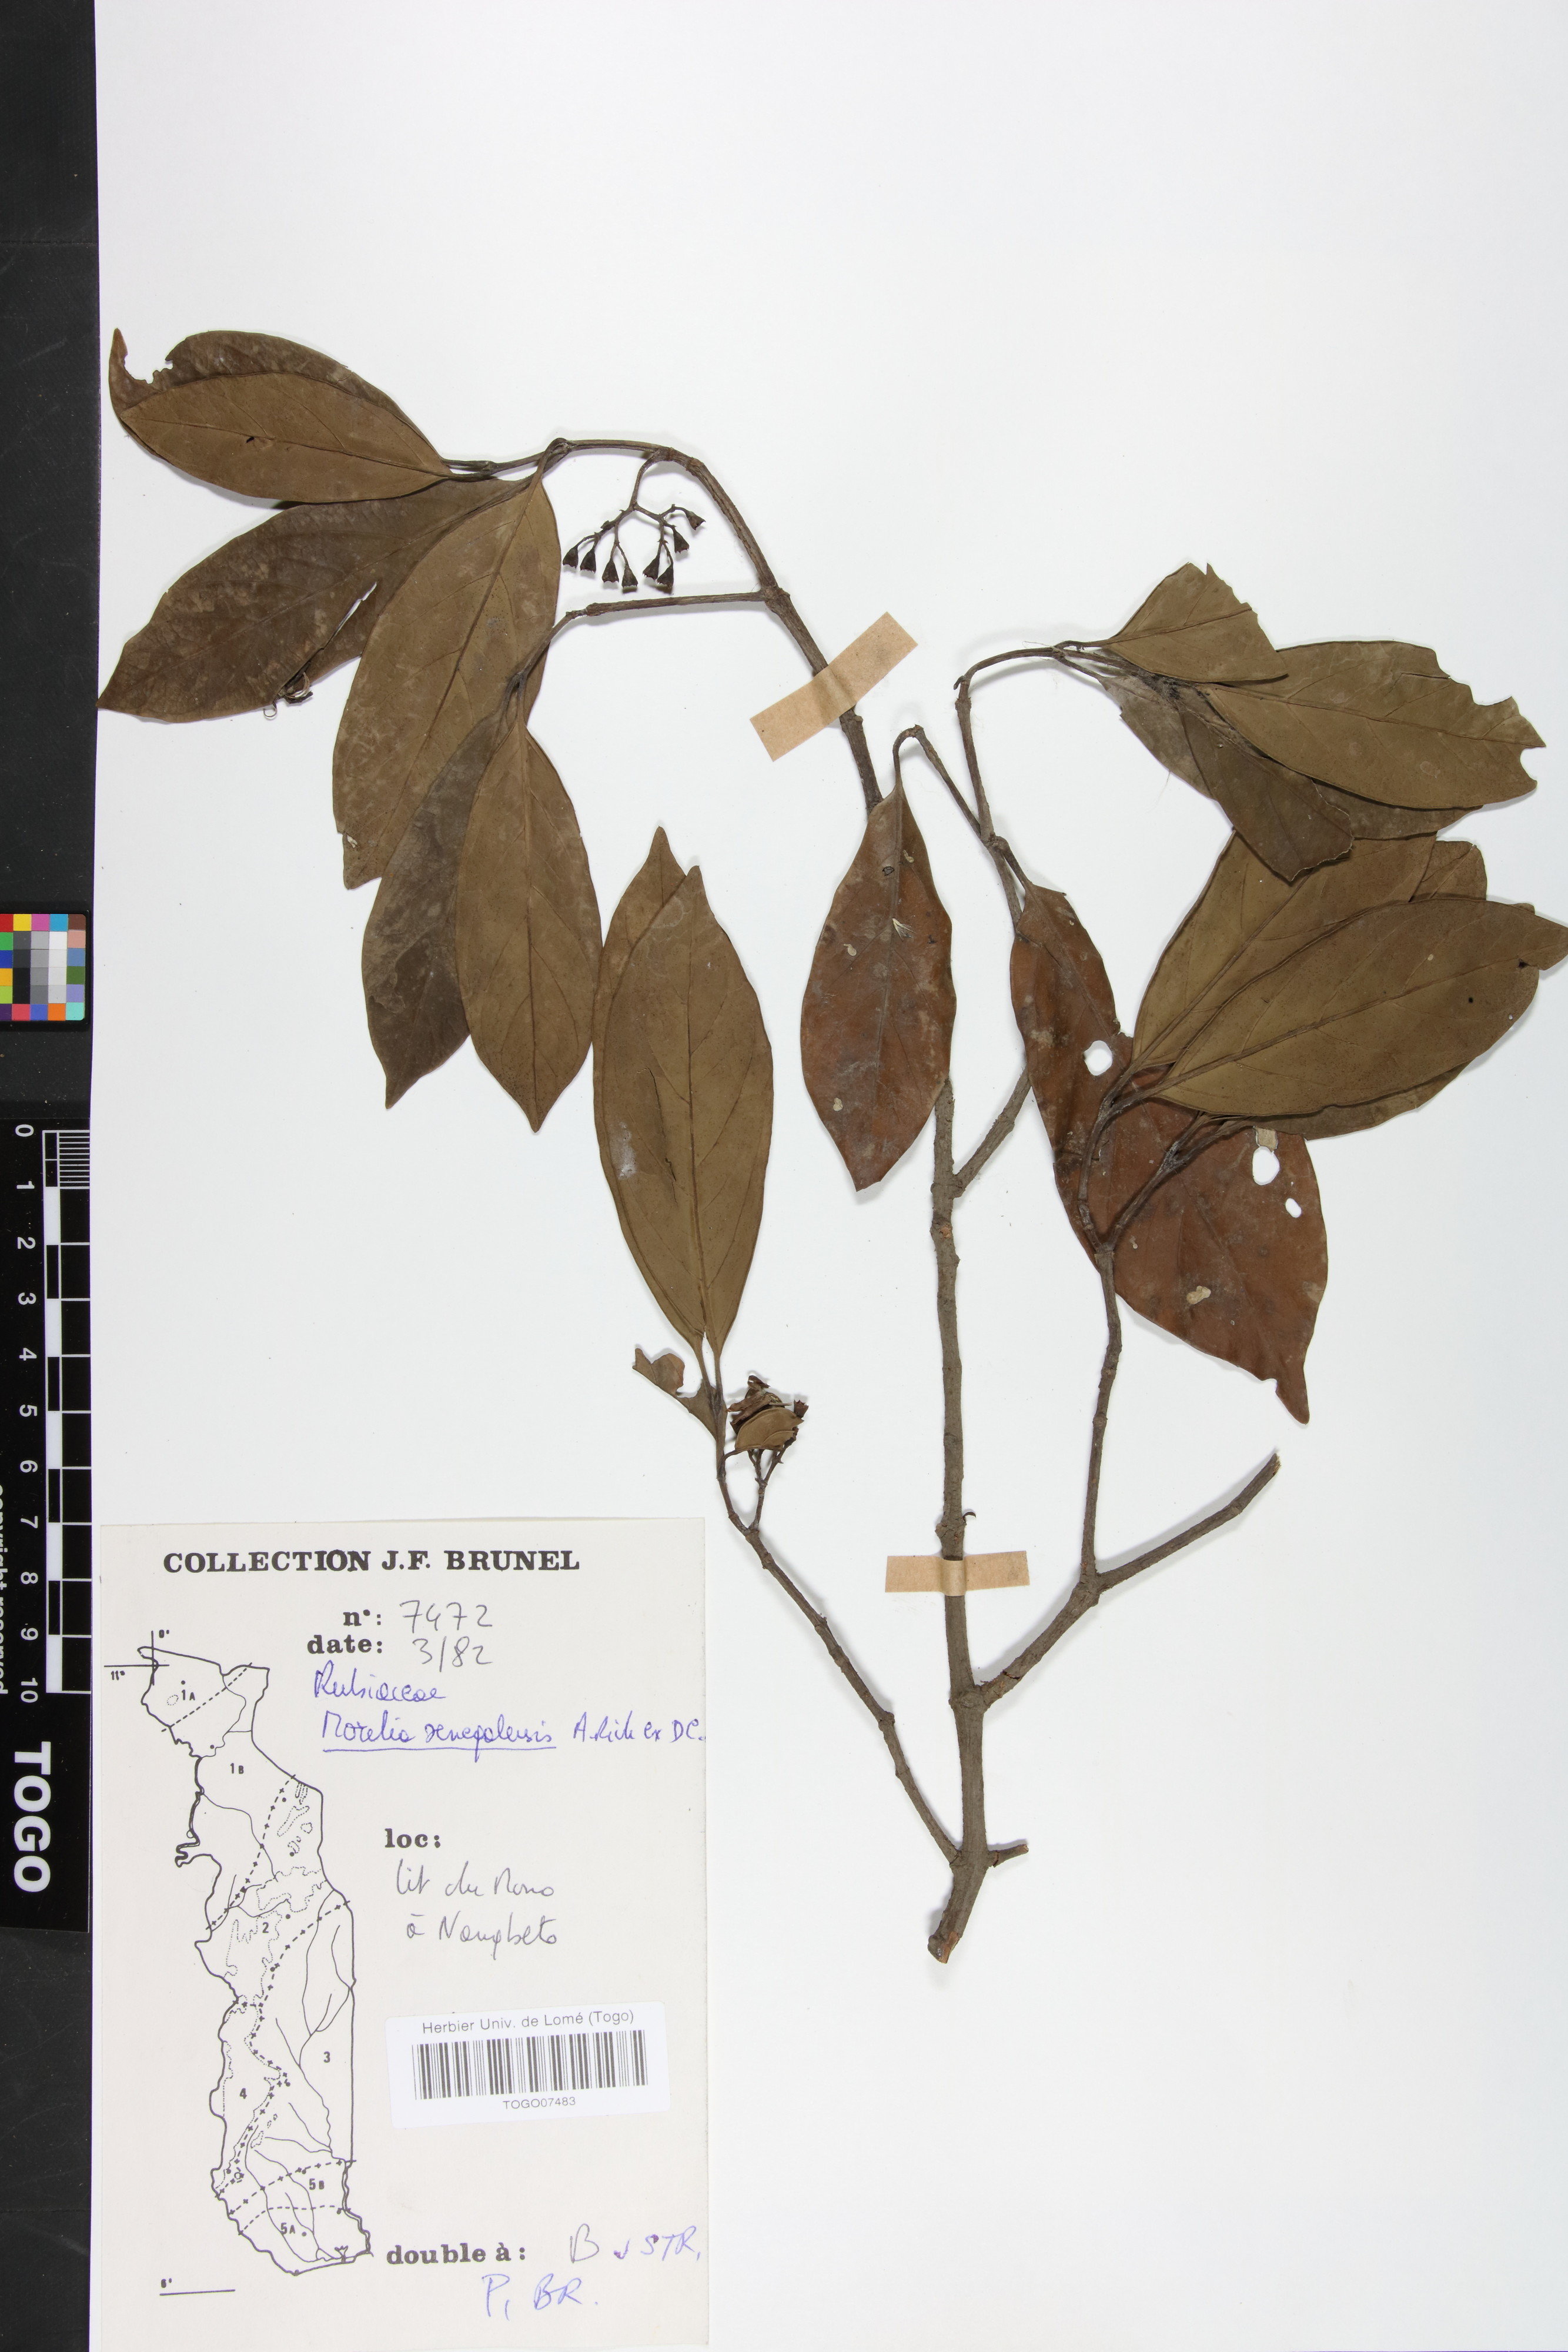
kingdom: Plantae
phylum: Tracheophyta
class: Magnoliopsida
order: Gentianales
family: Rubiaceae
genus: Morelia
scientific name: Morelia senegalensis
